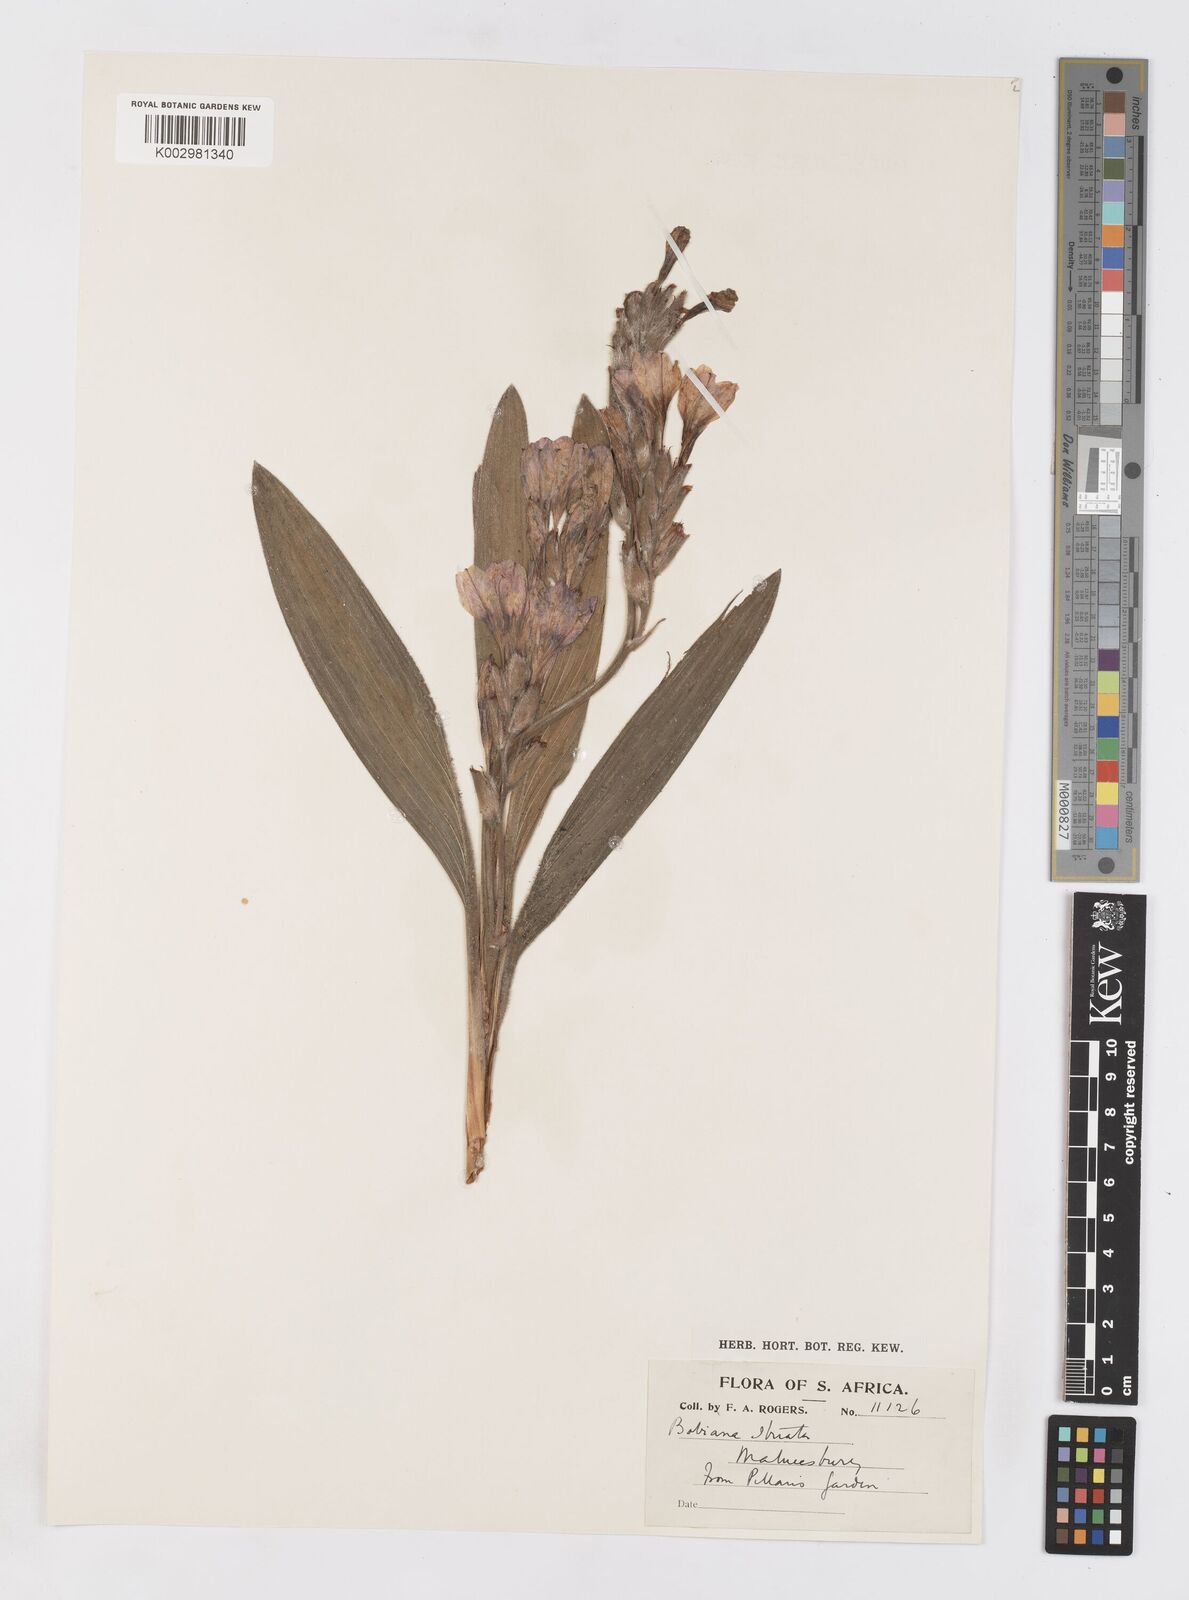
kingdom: Plantae
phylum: Tracheophyta
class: Liliopsida
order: Asparagales
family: Iridaceae
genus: Babiana
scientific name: Babiana
